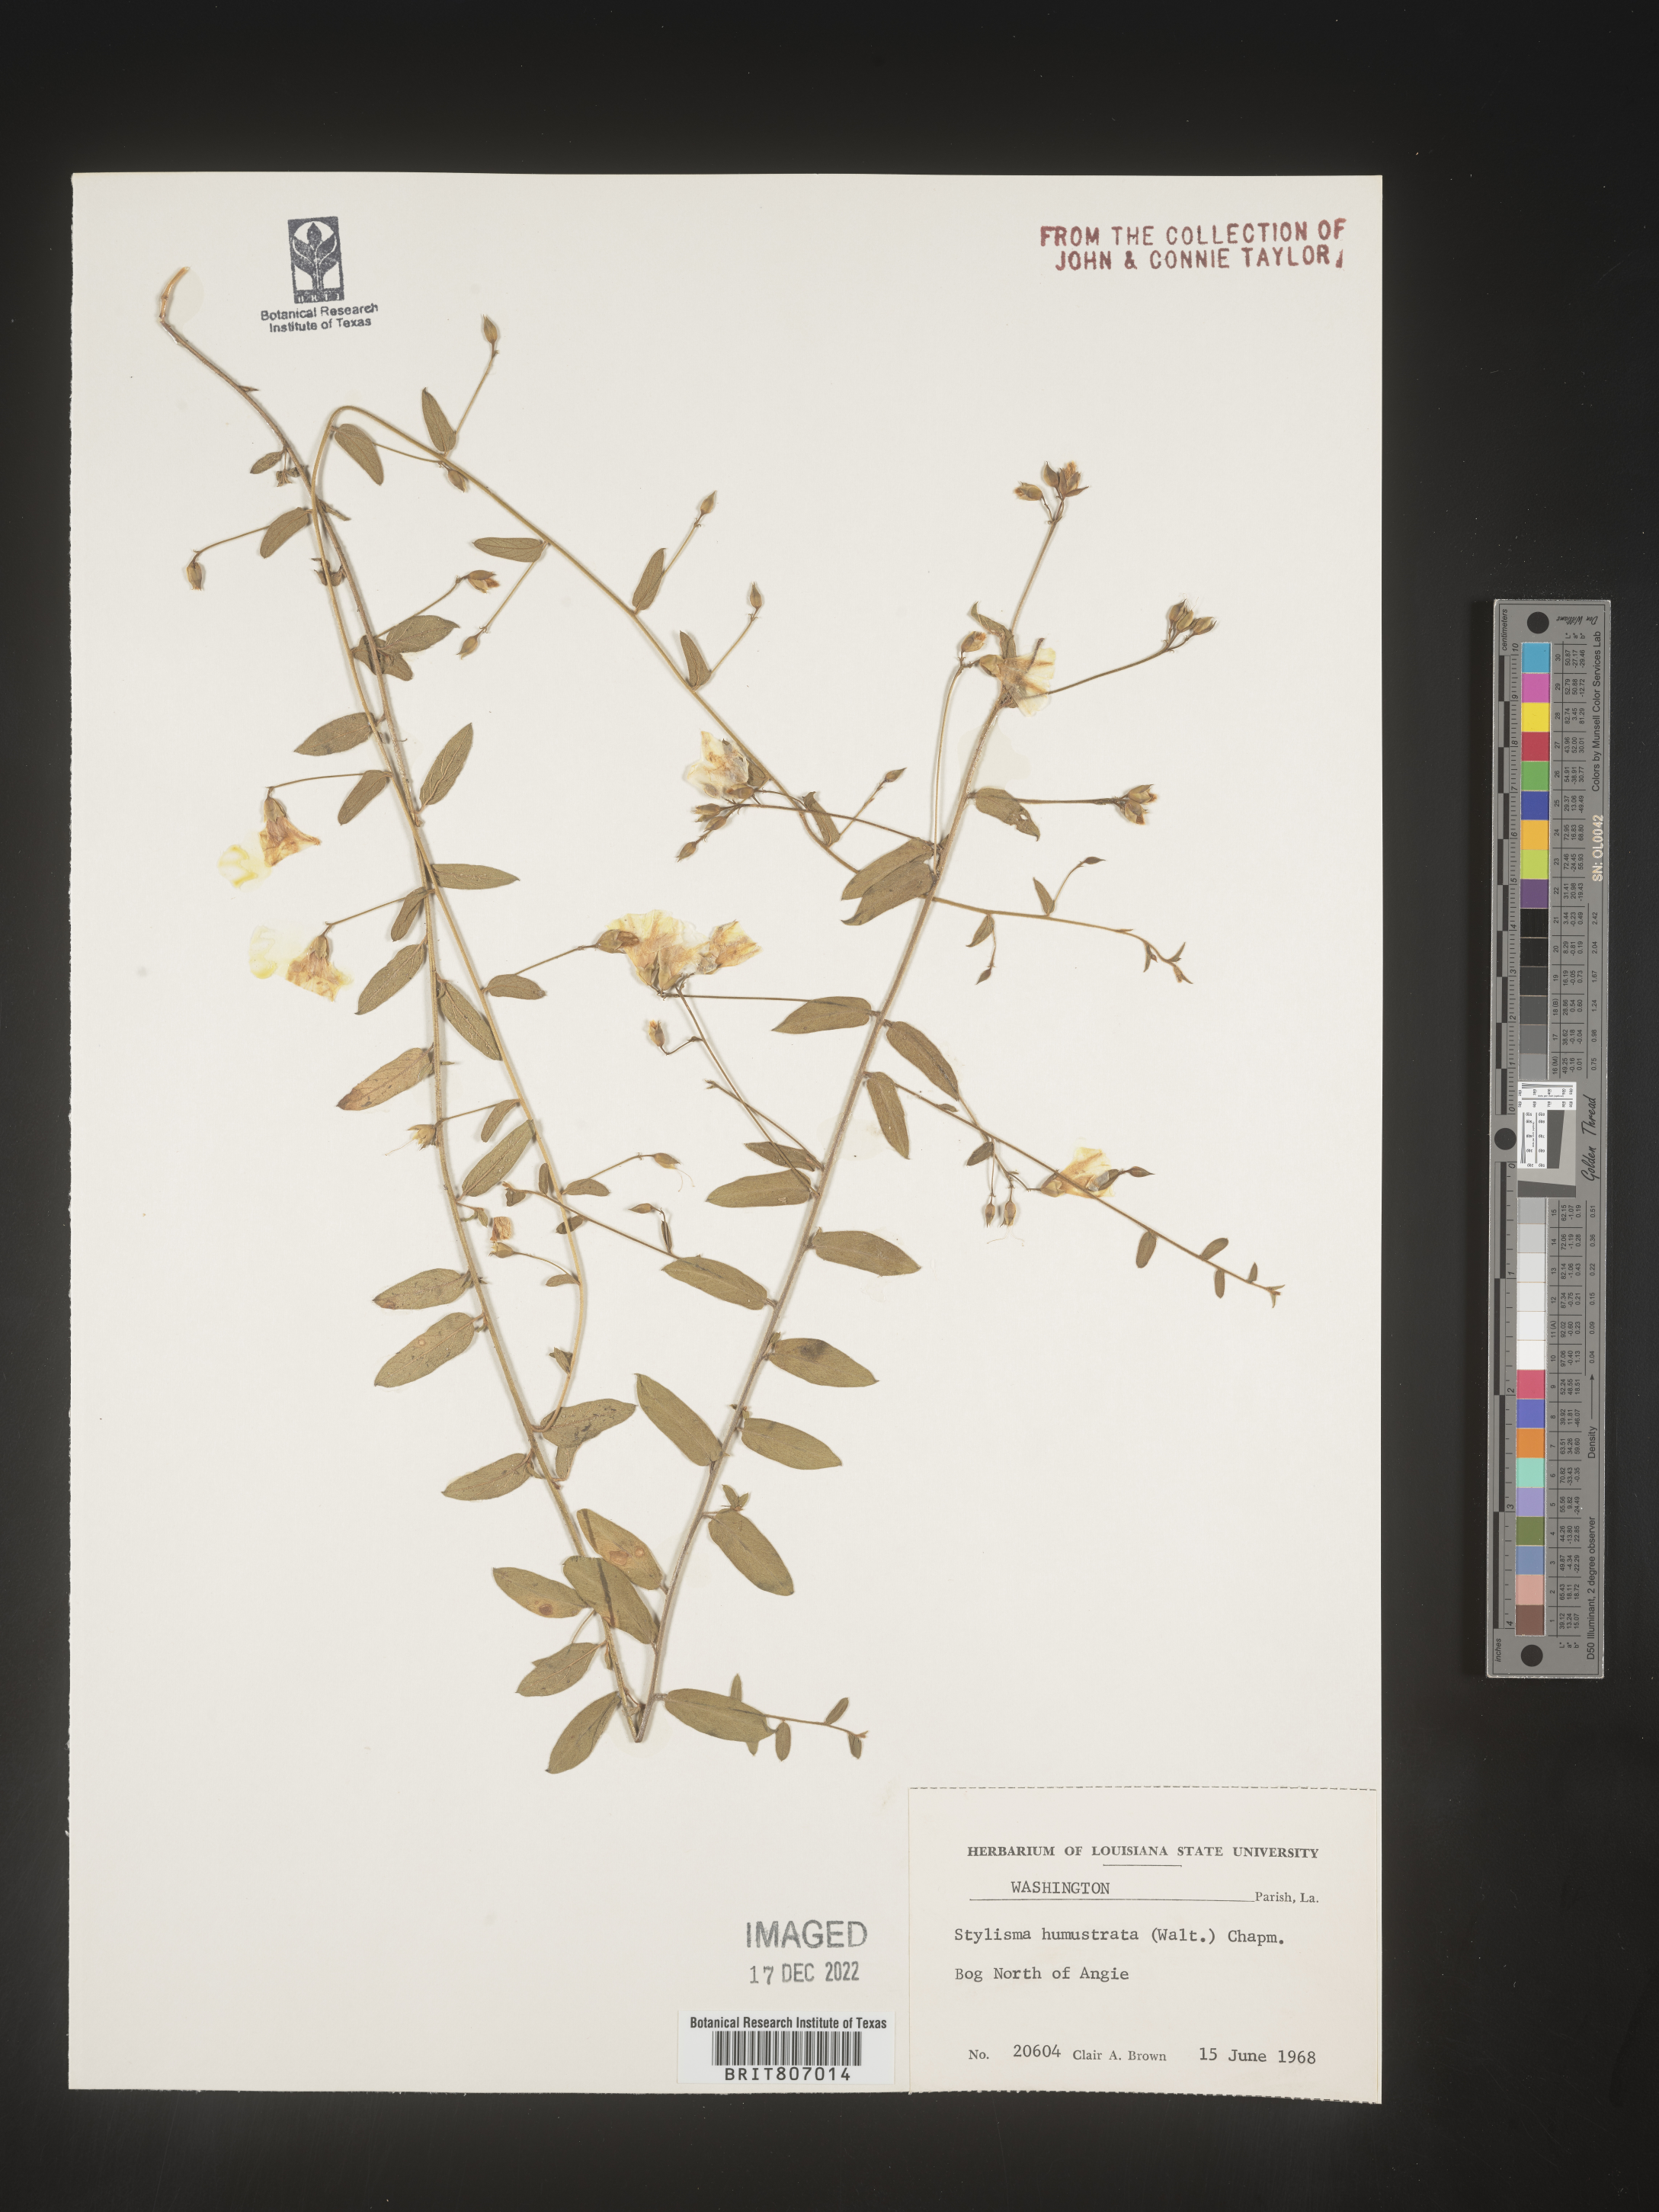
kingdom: Plantae
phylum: Tracheophyta
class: Magnoliopsida
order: Solanales
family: Convolvulaceae
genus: Stylisma
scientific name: Stylisma humistrata
